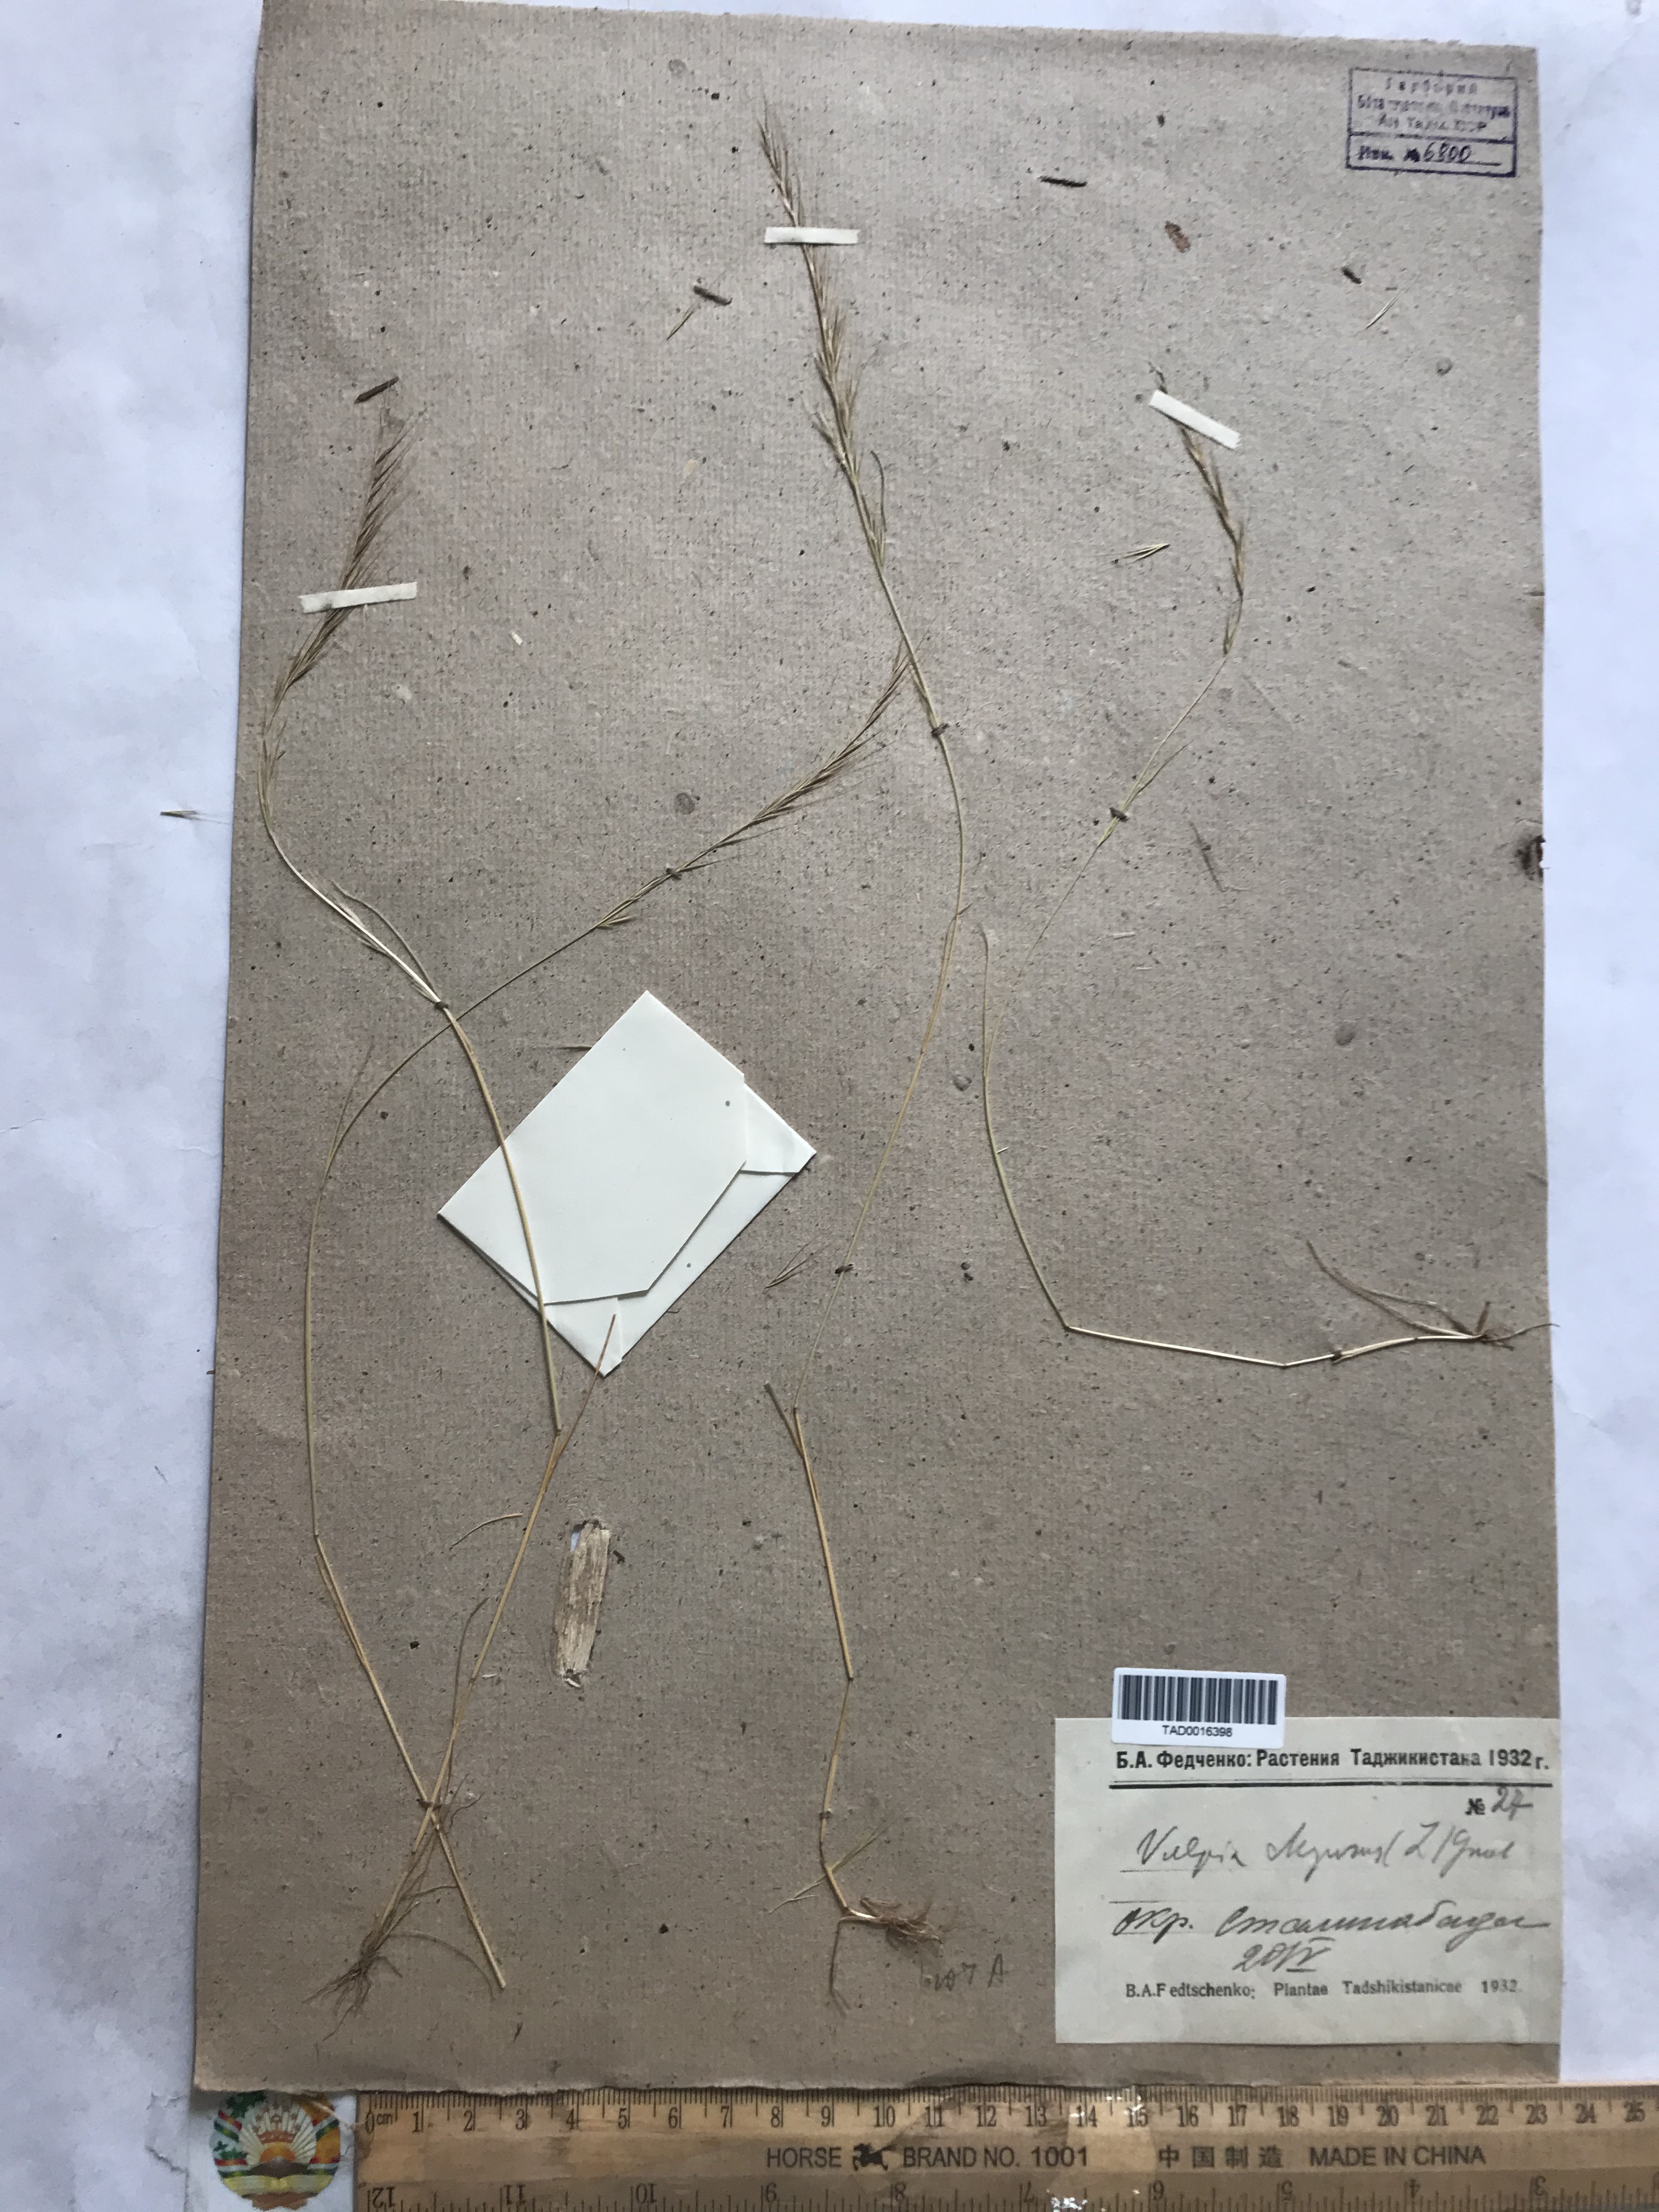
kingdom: Plantae
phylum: Tracheophyta
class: Liliopsida
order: Poales
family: Poaceae
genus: Festuca
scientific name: Festuca myuros
